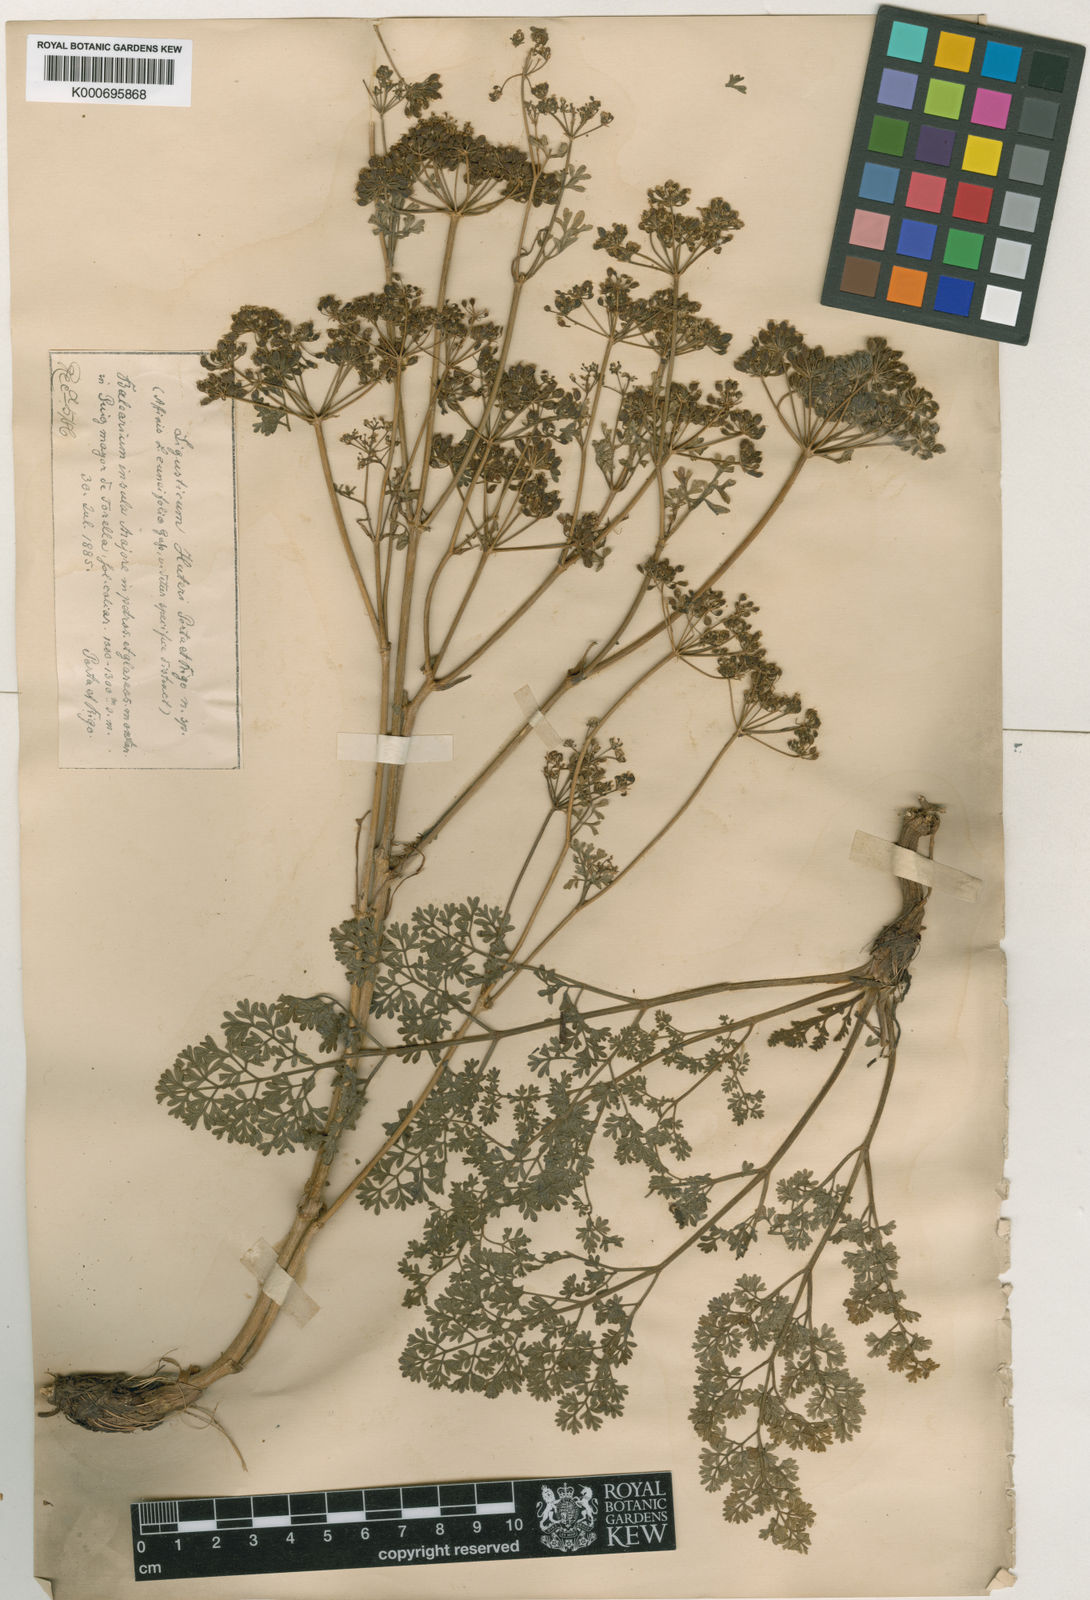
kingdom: Plantae
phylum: Tracheophyta
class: Magnoliopsida
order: Apiales
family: Apiaceae
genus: Coristospermum
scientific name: Coristospermum lucidum
